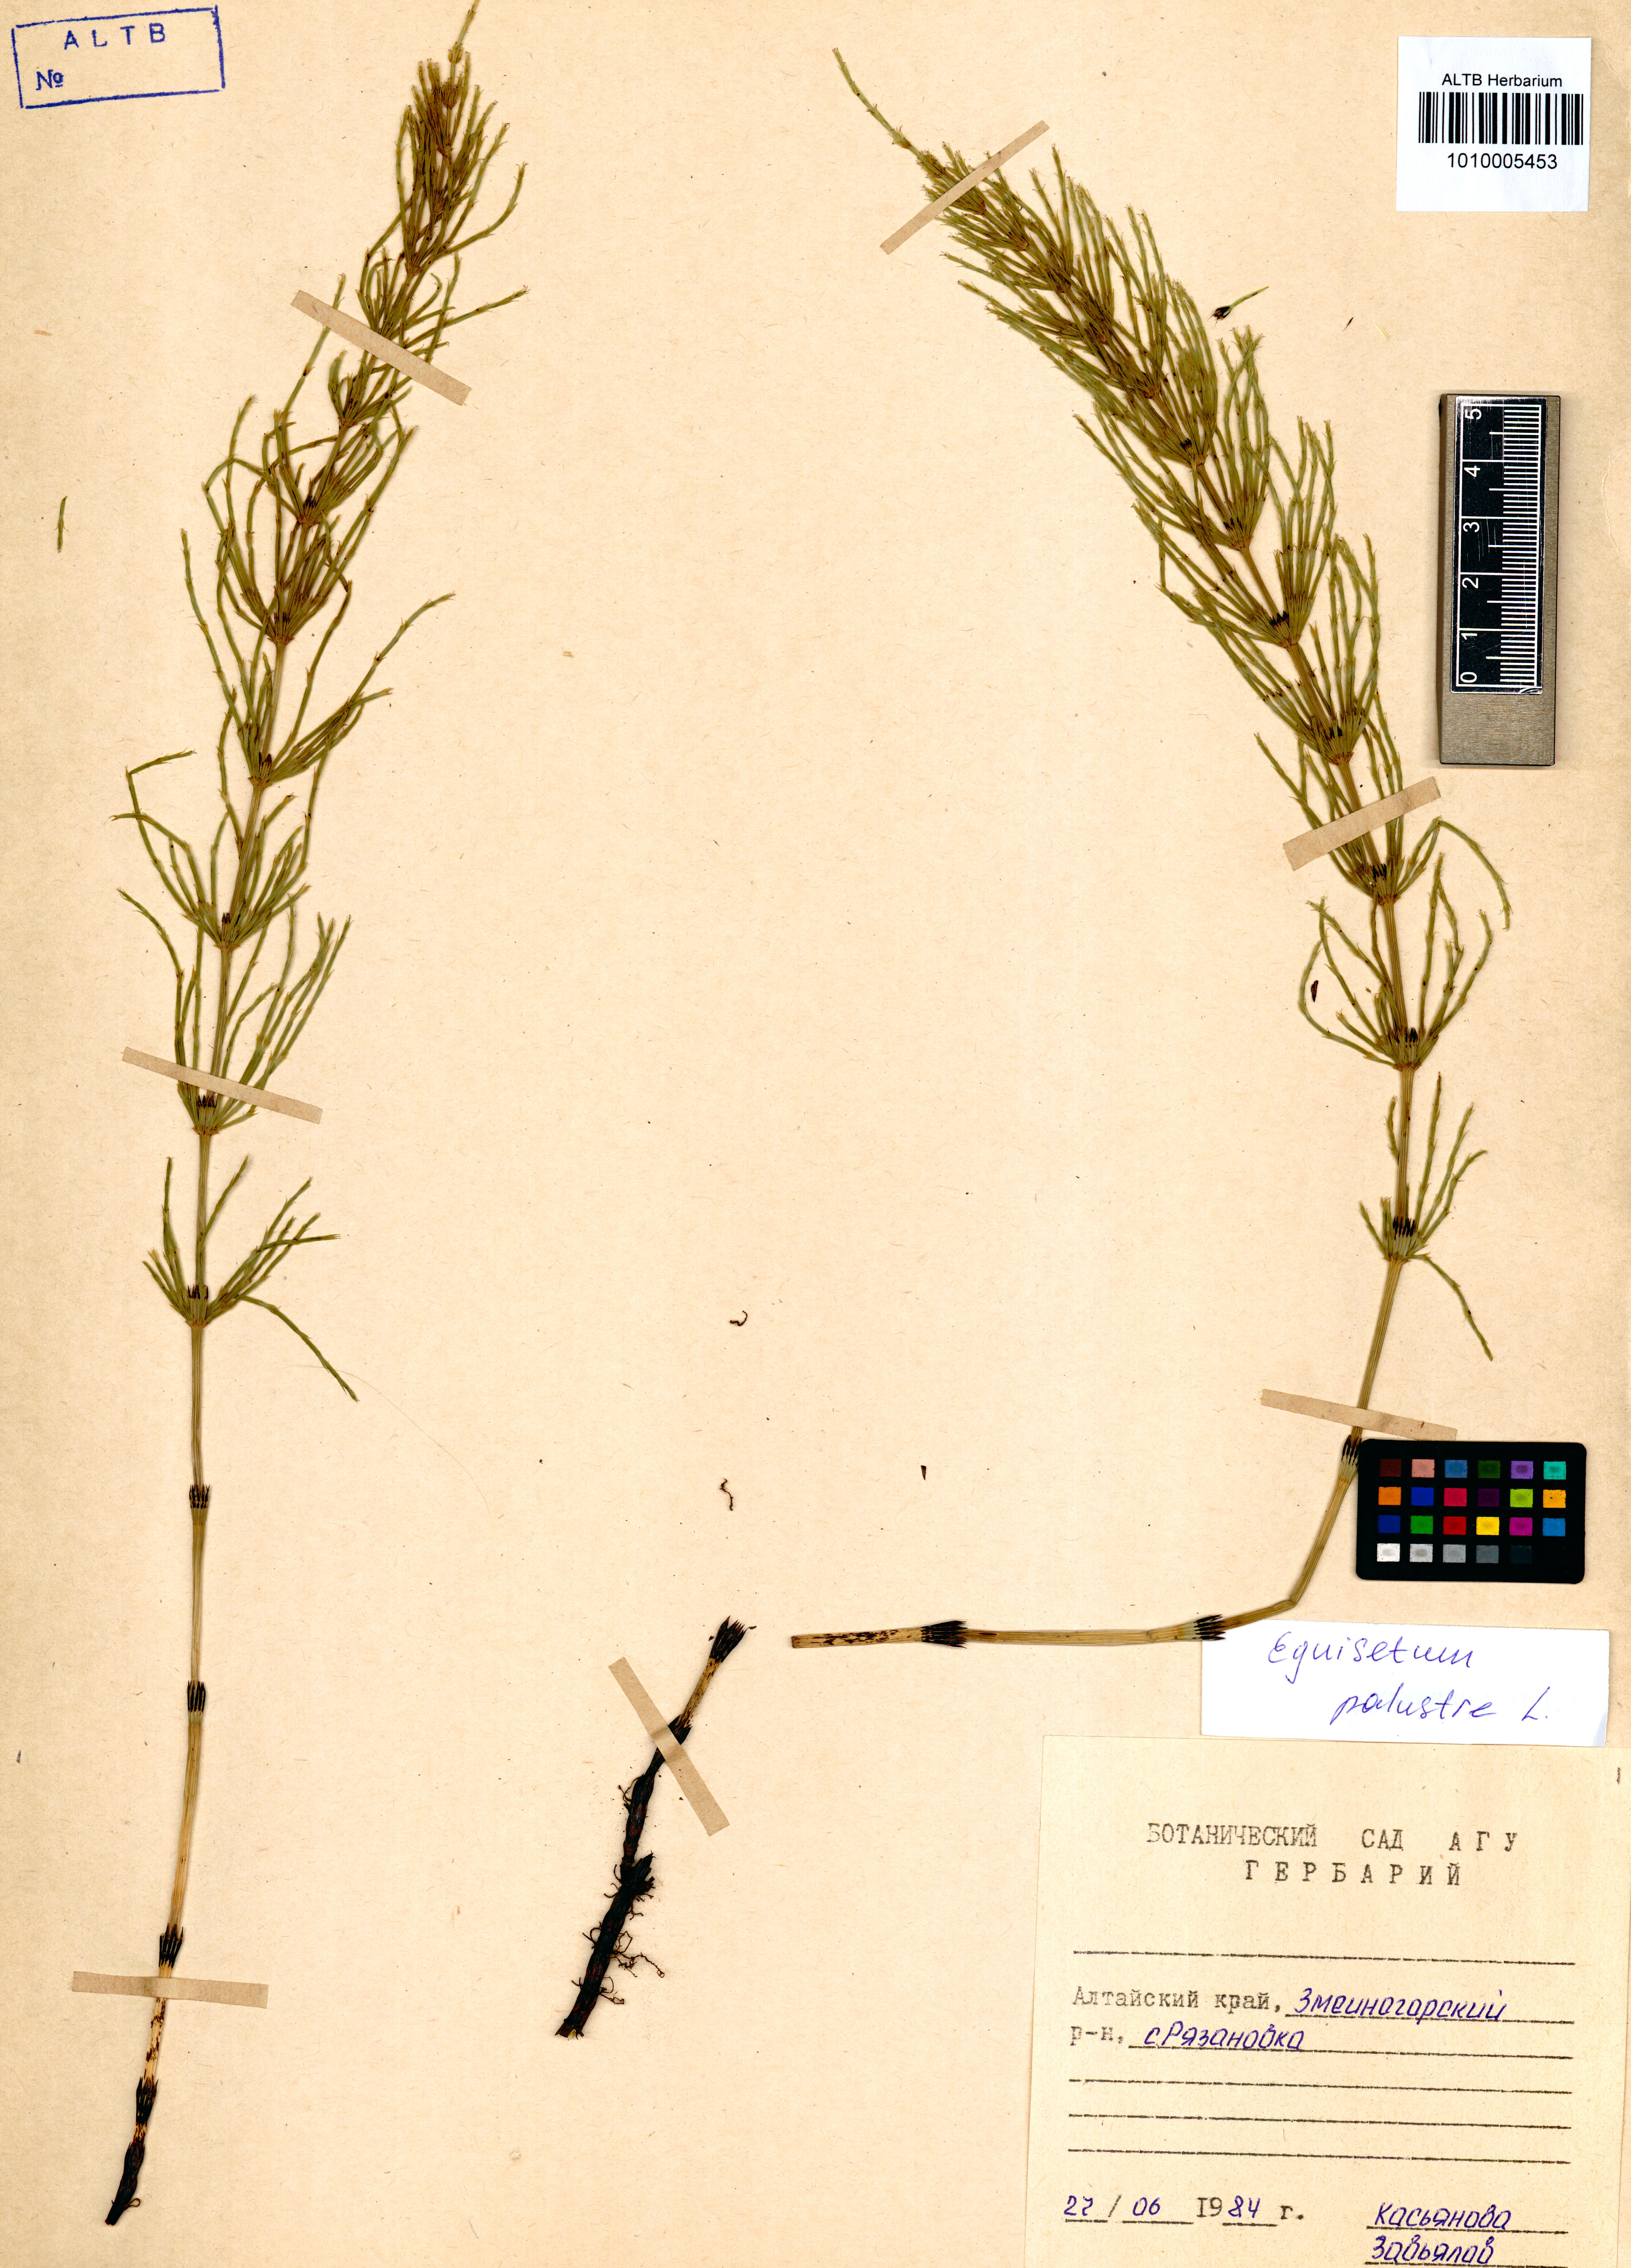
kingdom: Plantae
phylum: Tracheophyta
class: Polypodiopsida
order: Equisetales
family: Equisetaceae
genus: Equisetum
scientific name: Equisetum palustre
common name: Marsh horsetail
